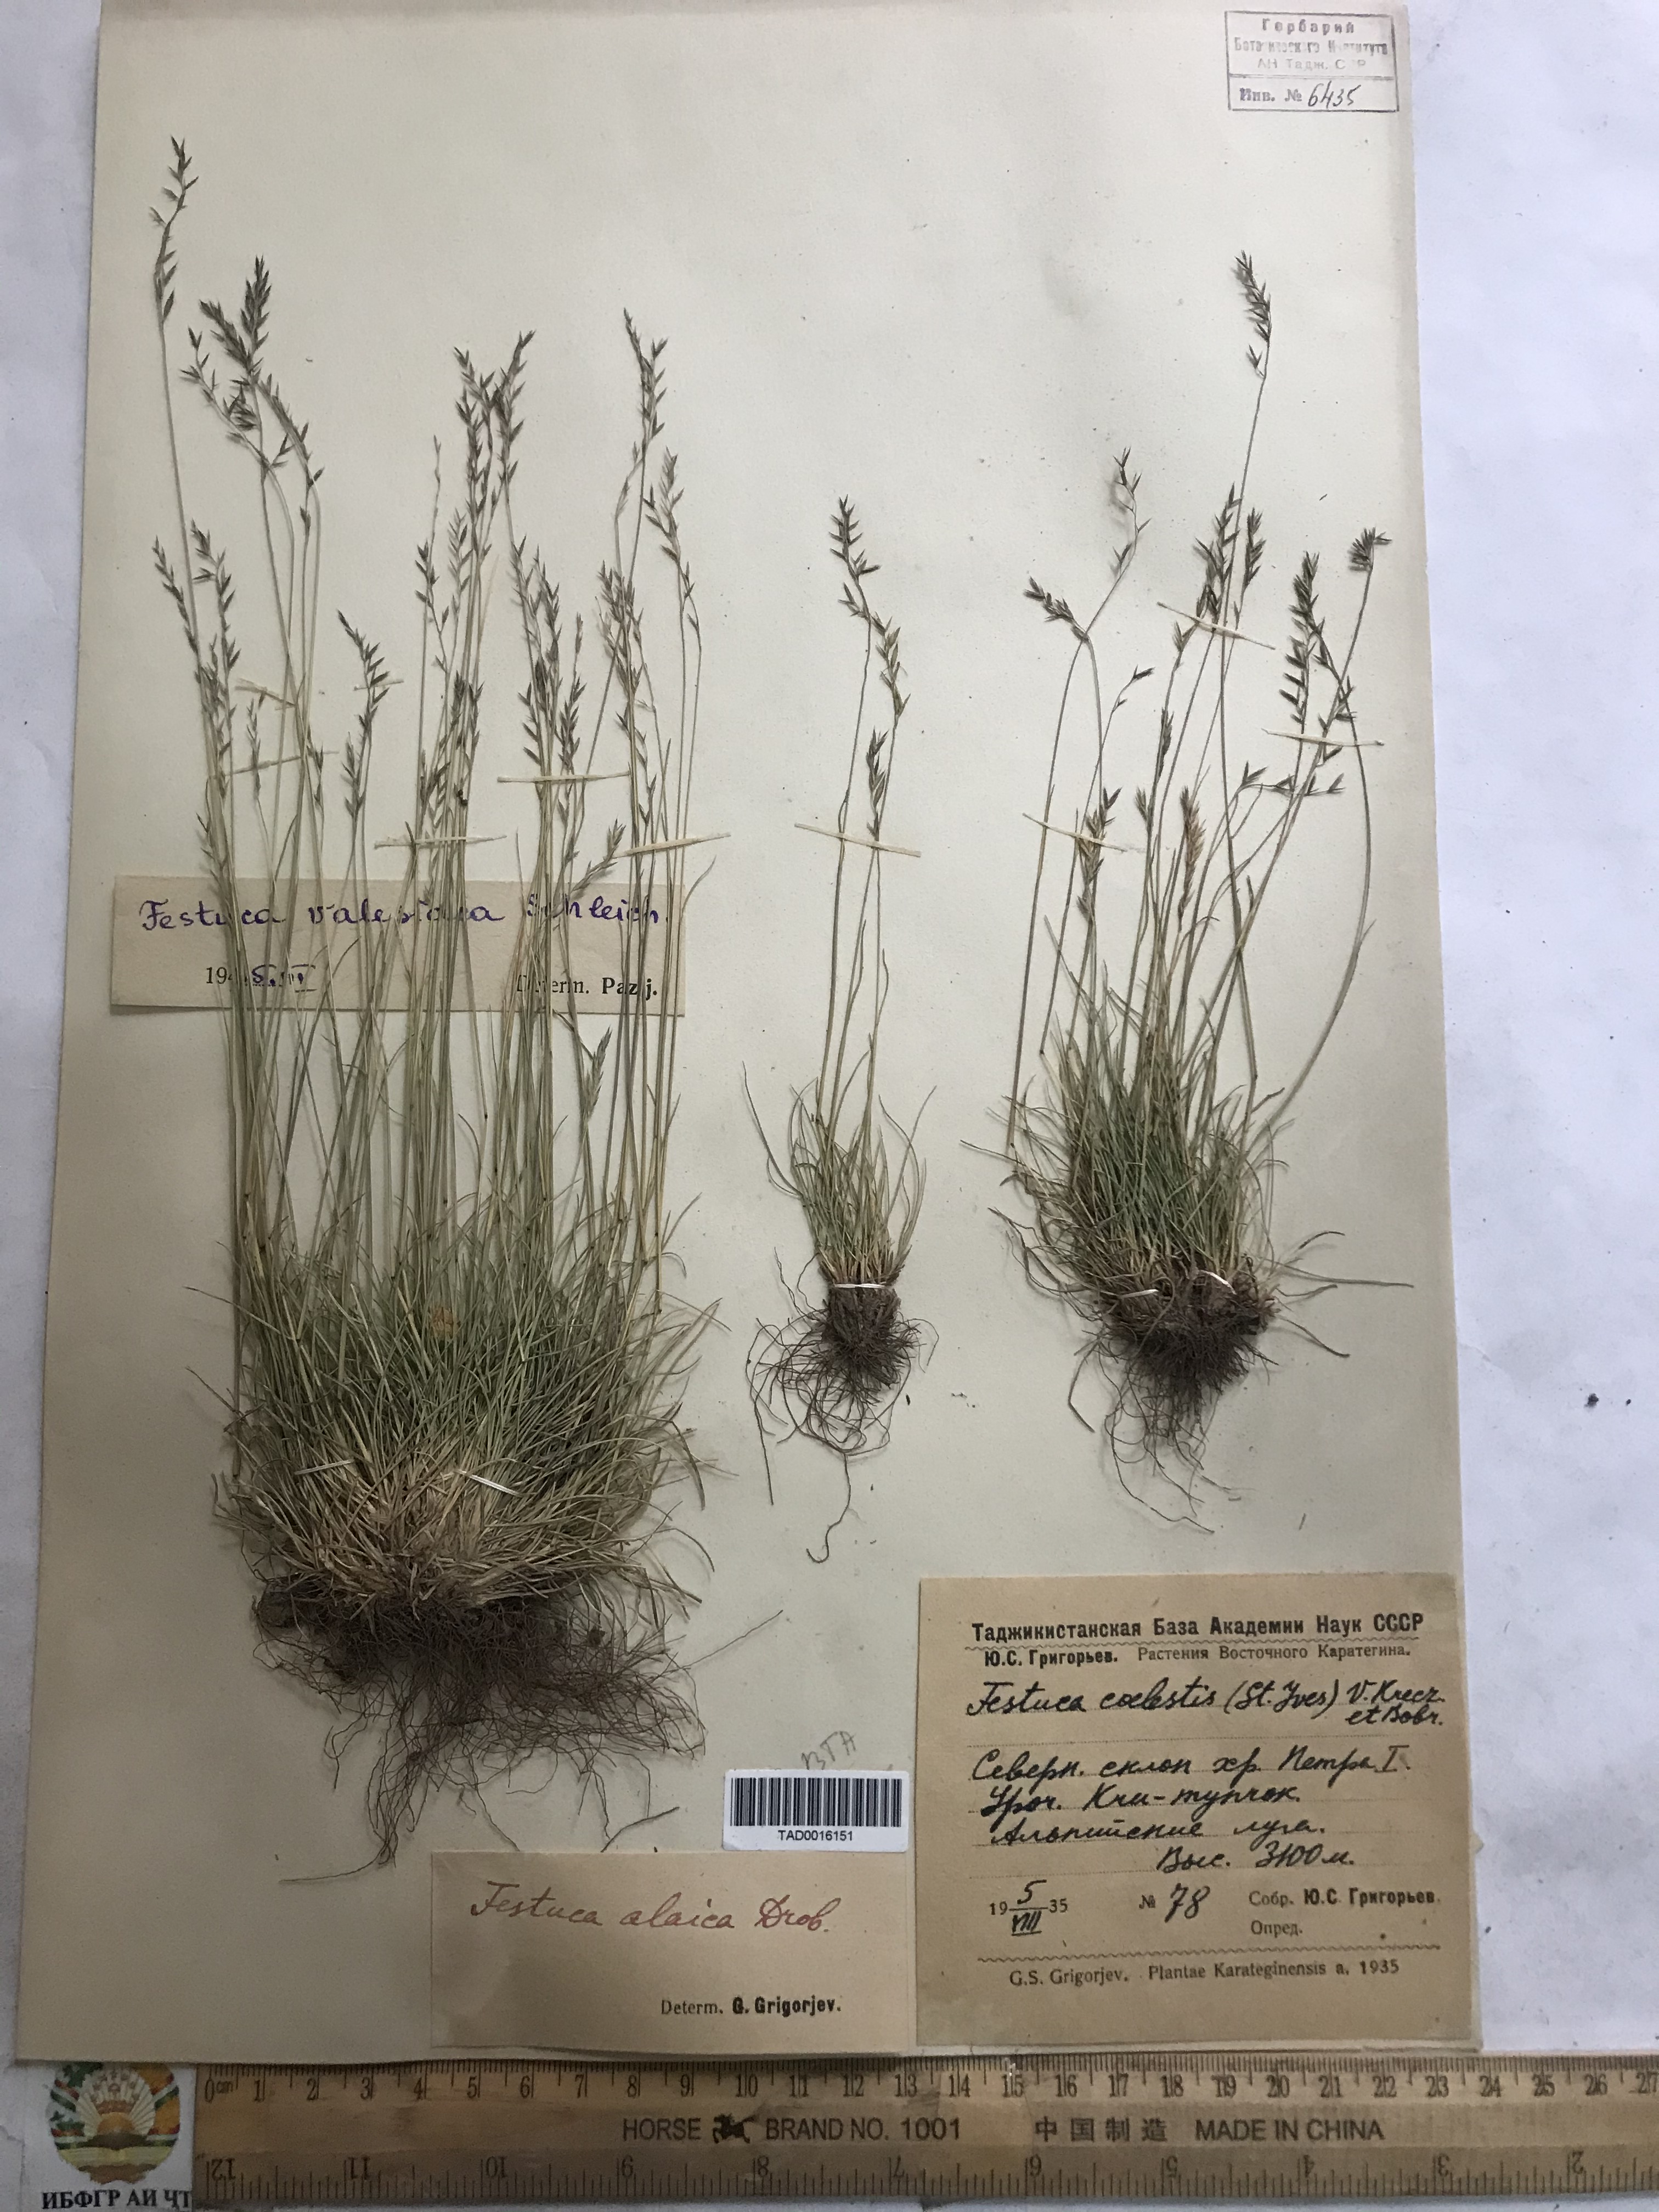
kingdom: Plantae
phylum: Tracheophyta
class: Liliopsida
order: Poales
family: Poaceae
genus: Festuca
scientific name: Festuca alaica
